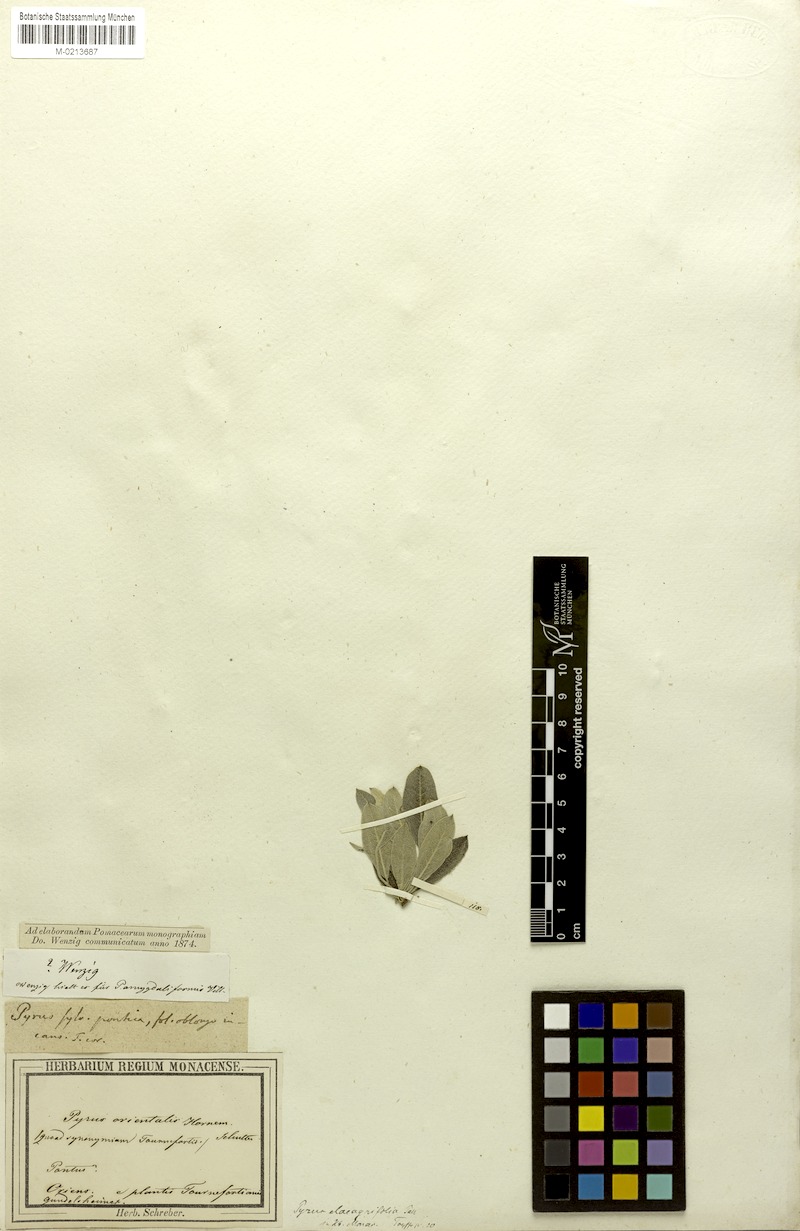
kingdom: Plantae
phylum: Tracheophyta
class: Magnoliopsida
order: Rosales
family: Rosaceae
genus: Pyrus
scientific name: Pyrus elaeagnifolia
